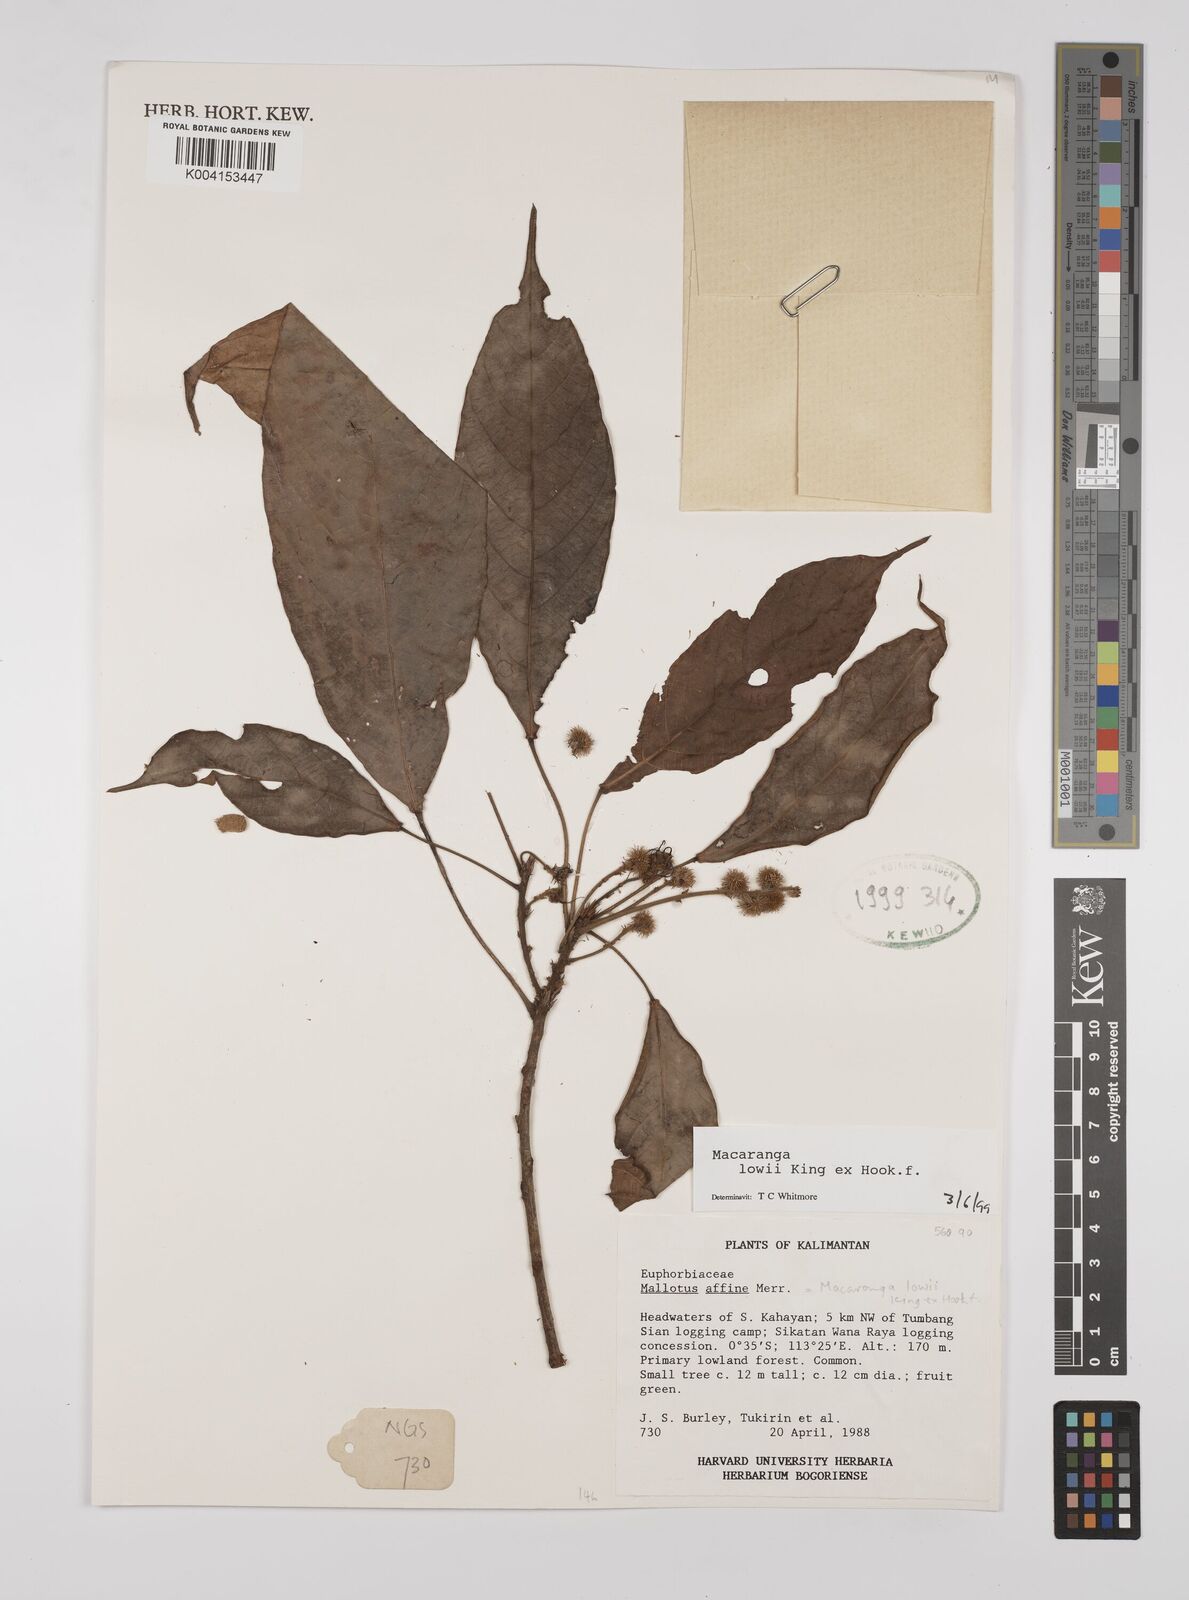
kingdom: Plantae
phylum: Tracheophyta
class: Magnoliopsida
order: Malpighiales
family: Euphorbiaceae
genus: Macaranga
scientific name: Macaranga lowii
